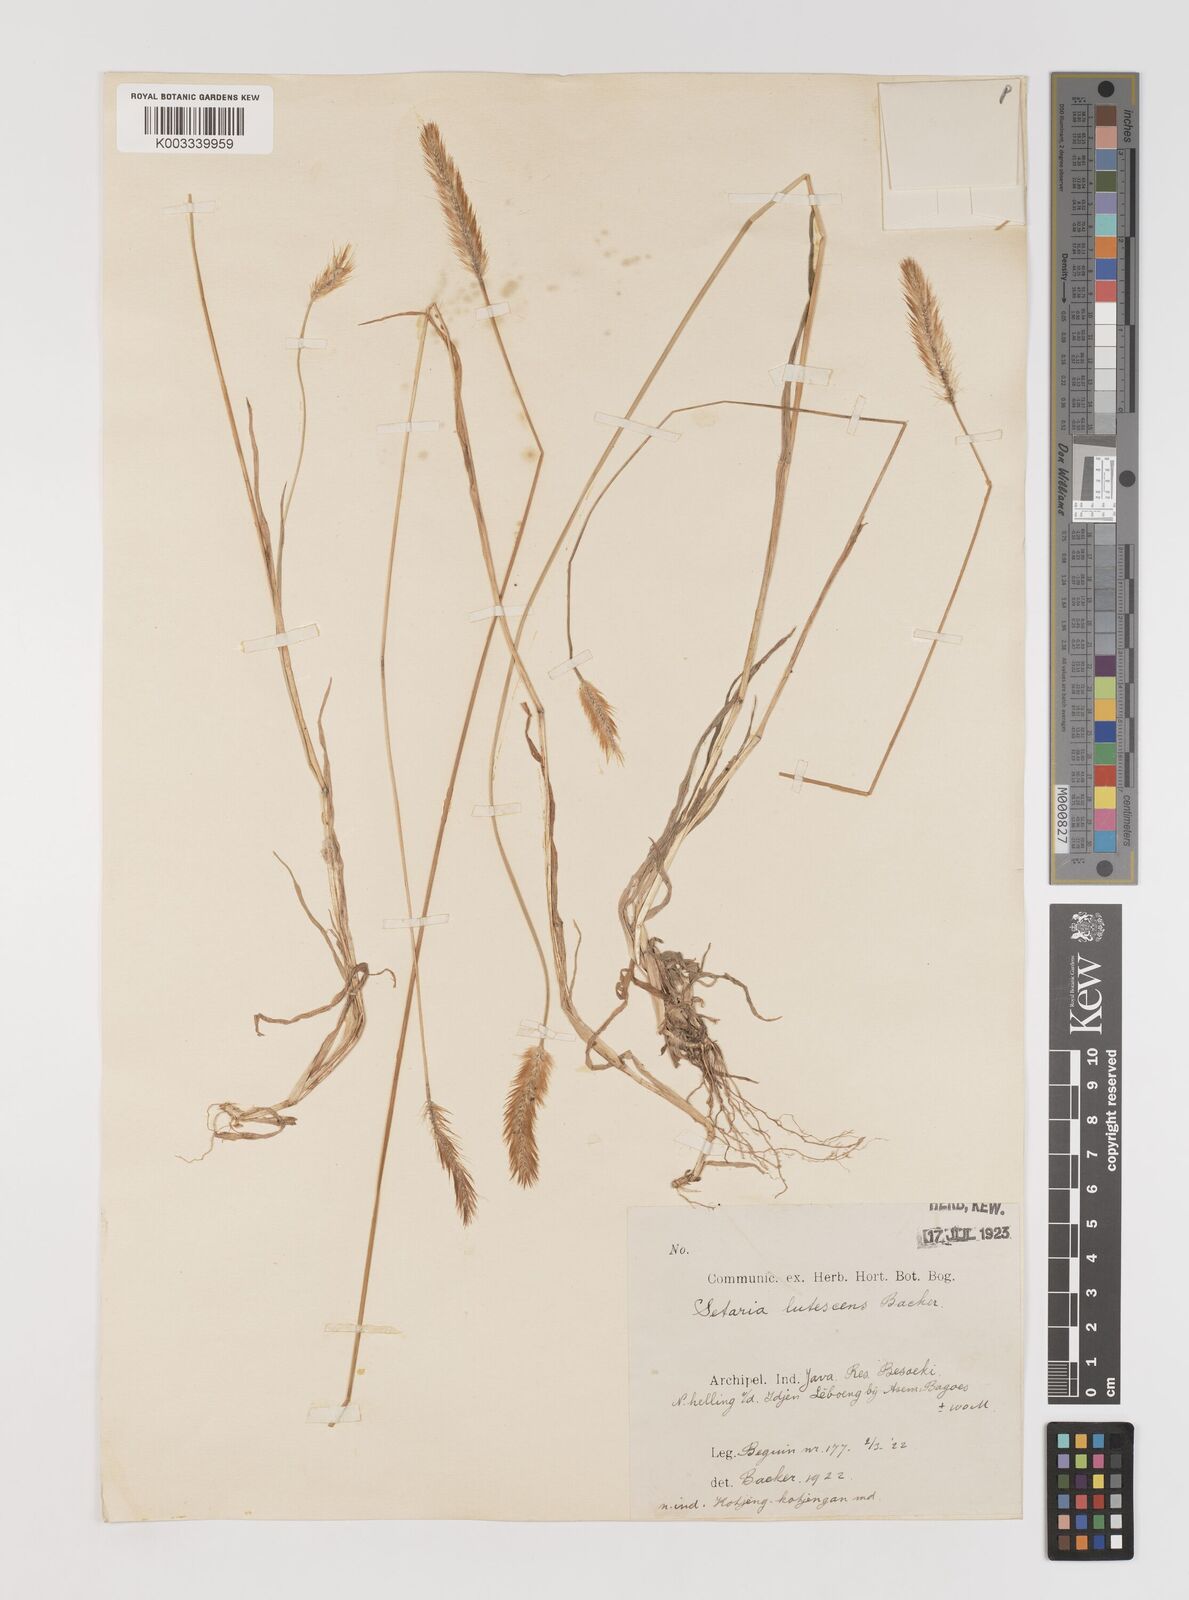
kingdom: Plantae
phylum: Tracheophyta
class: Liliopsida
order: Poales
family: Poaceae
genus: Setaria
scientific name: Setaria parviflora
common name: Knotroot bristle-grass
